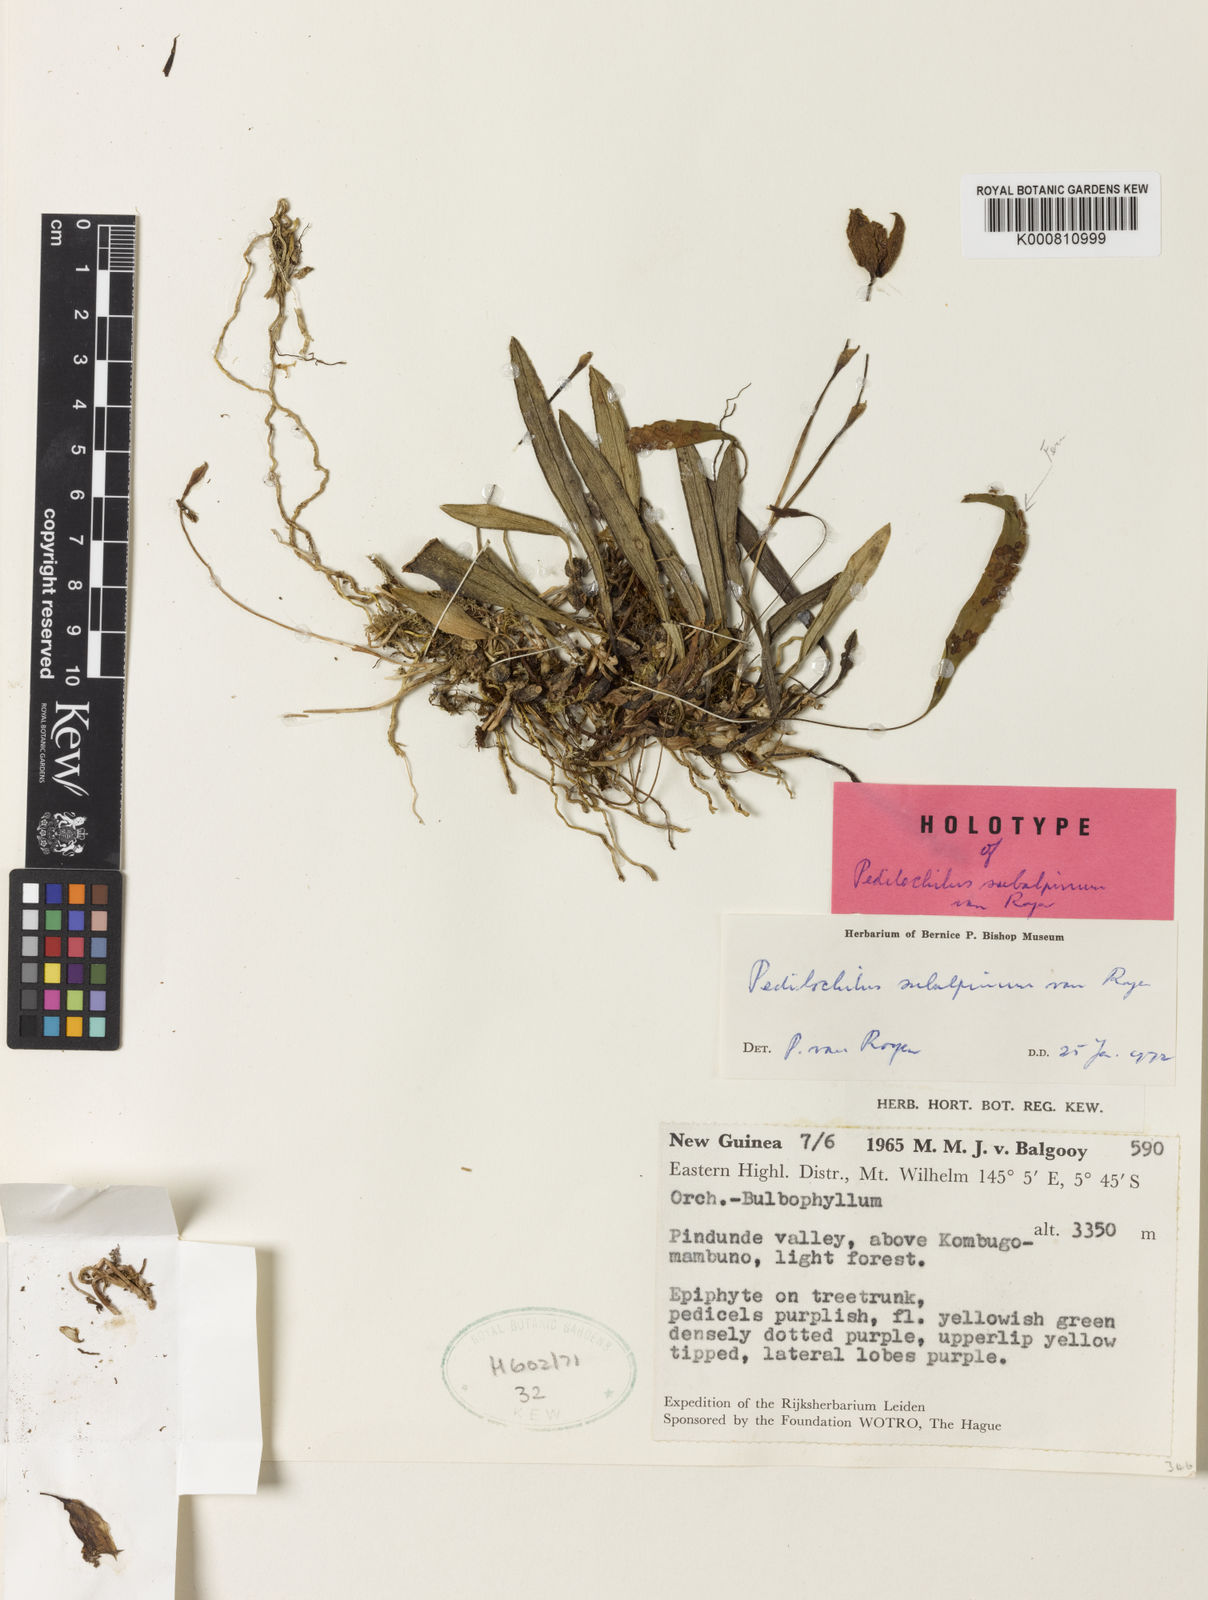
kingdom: Plantae
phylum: Tracheophyta
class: Liliopsida
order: Asparagales
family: Orchidaceae
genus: Bulbophyllum
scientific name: Bulbophyllum balgooiji
